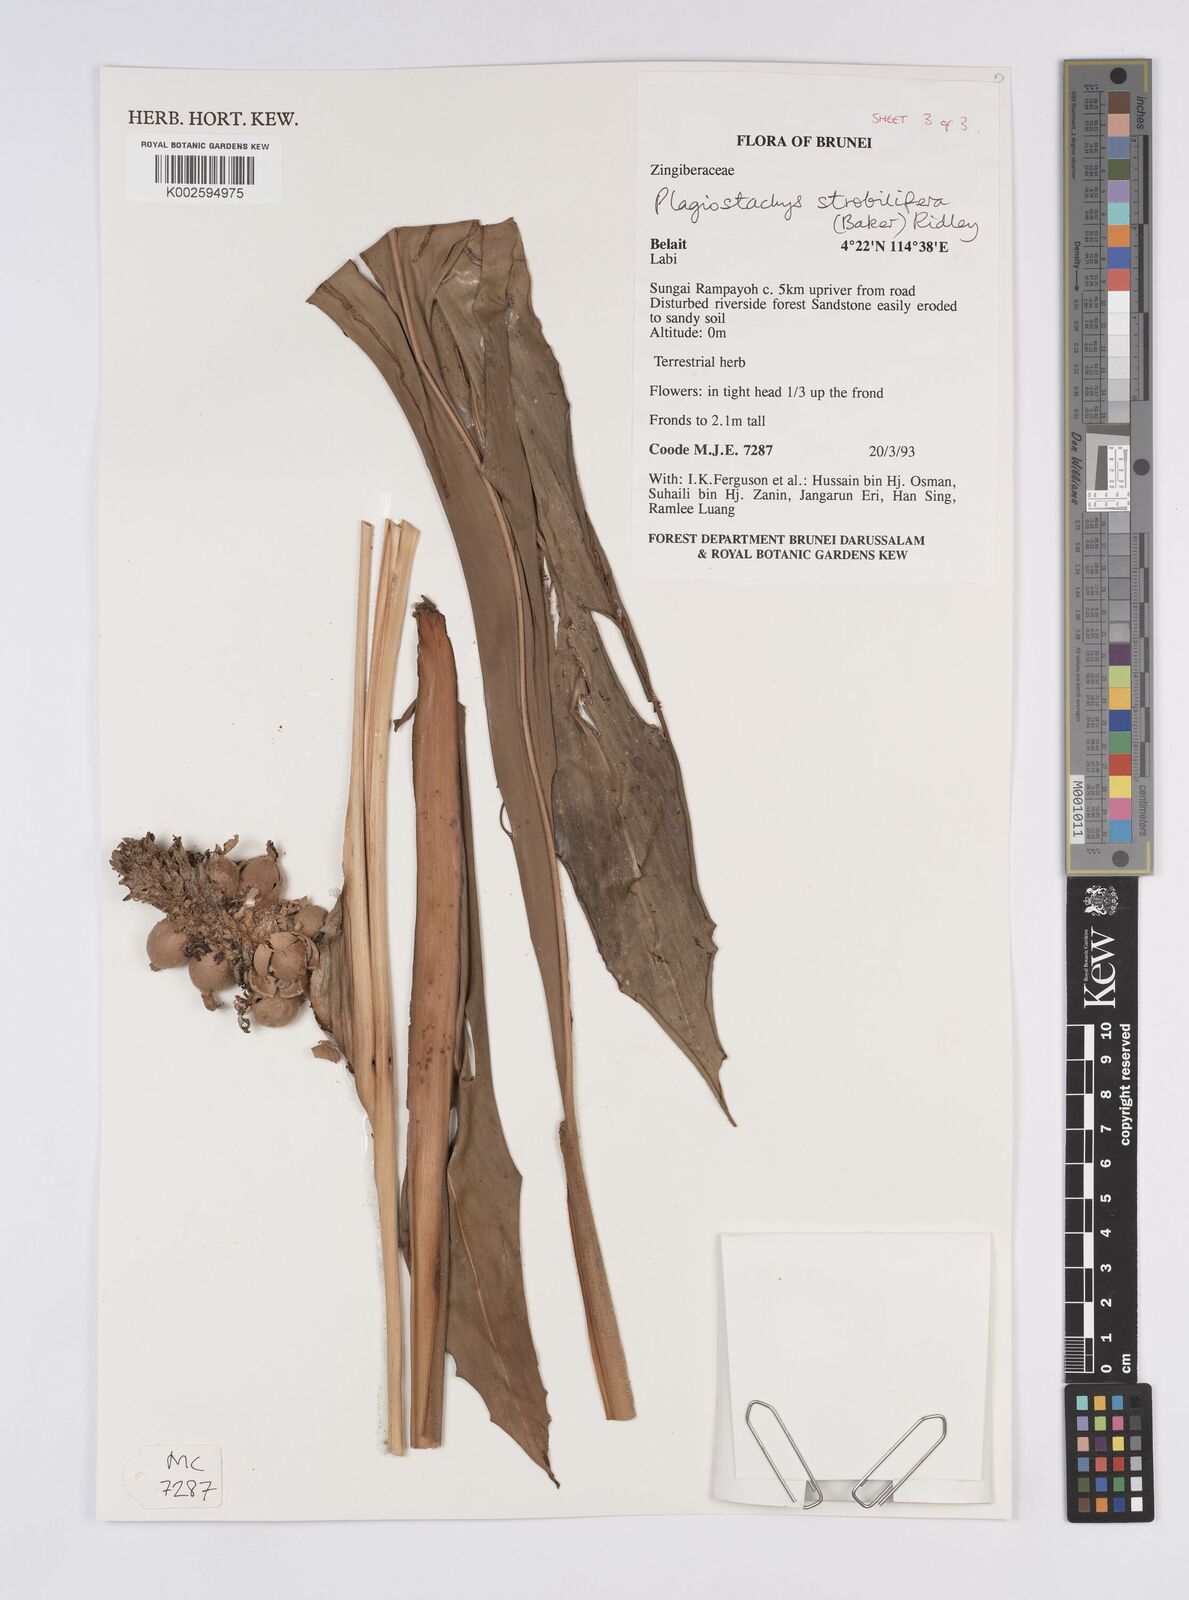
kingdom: Plantae
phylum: Tracheophyta
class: Liliopsida
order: Zingiberales
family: Zingiberaceae
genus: Plagiostachys
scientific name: Plagiostachys strobilifera
